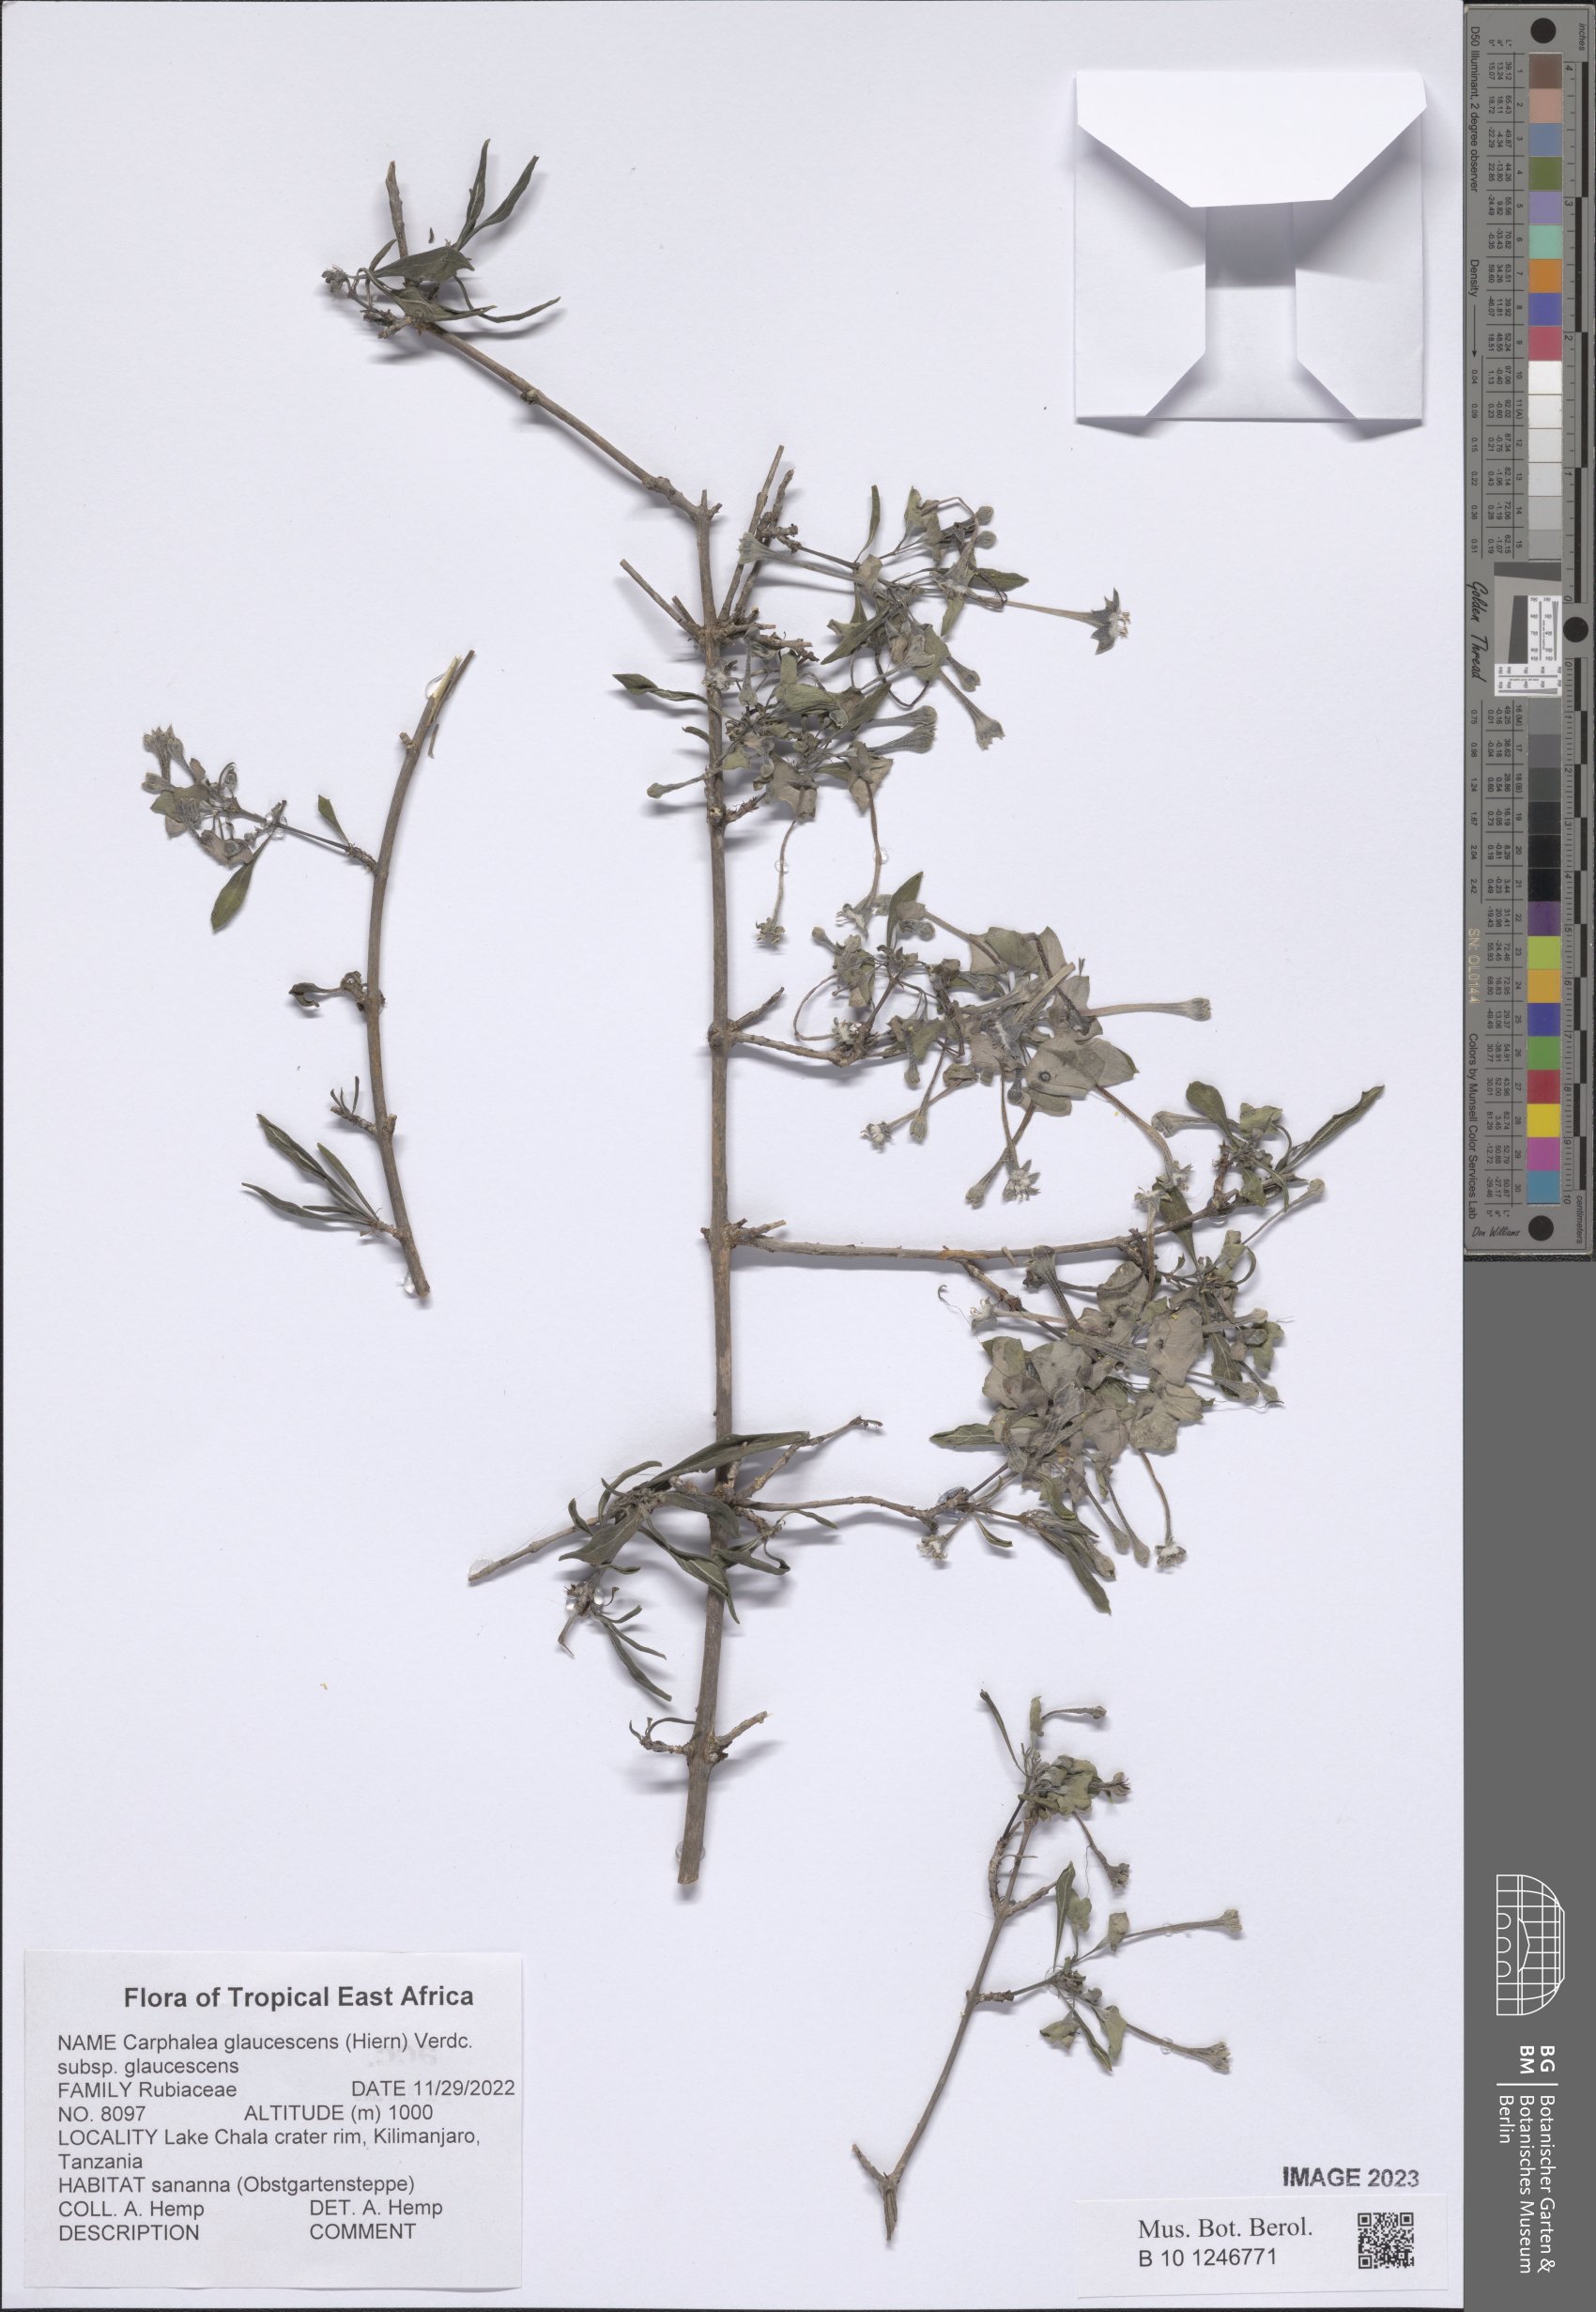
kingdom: Plantae
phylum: Tracheophyta
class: Magnoliopsida
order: Gentianales
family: Rubiaceae
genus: Dirichletia
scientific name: Dirichletia
